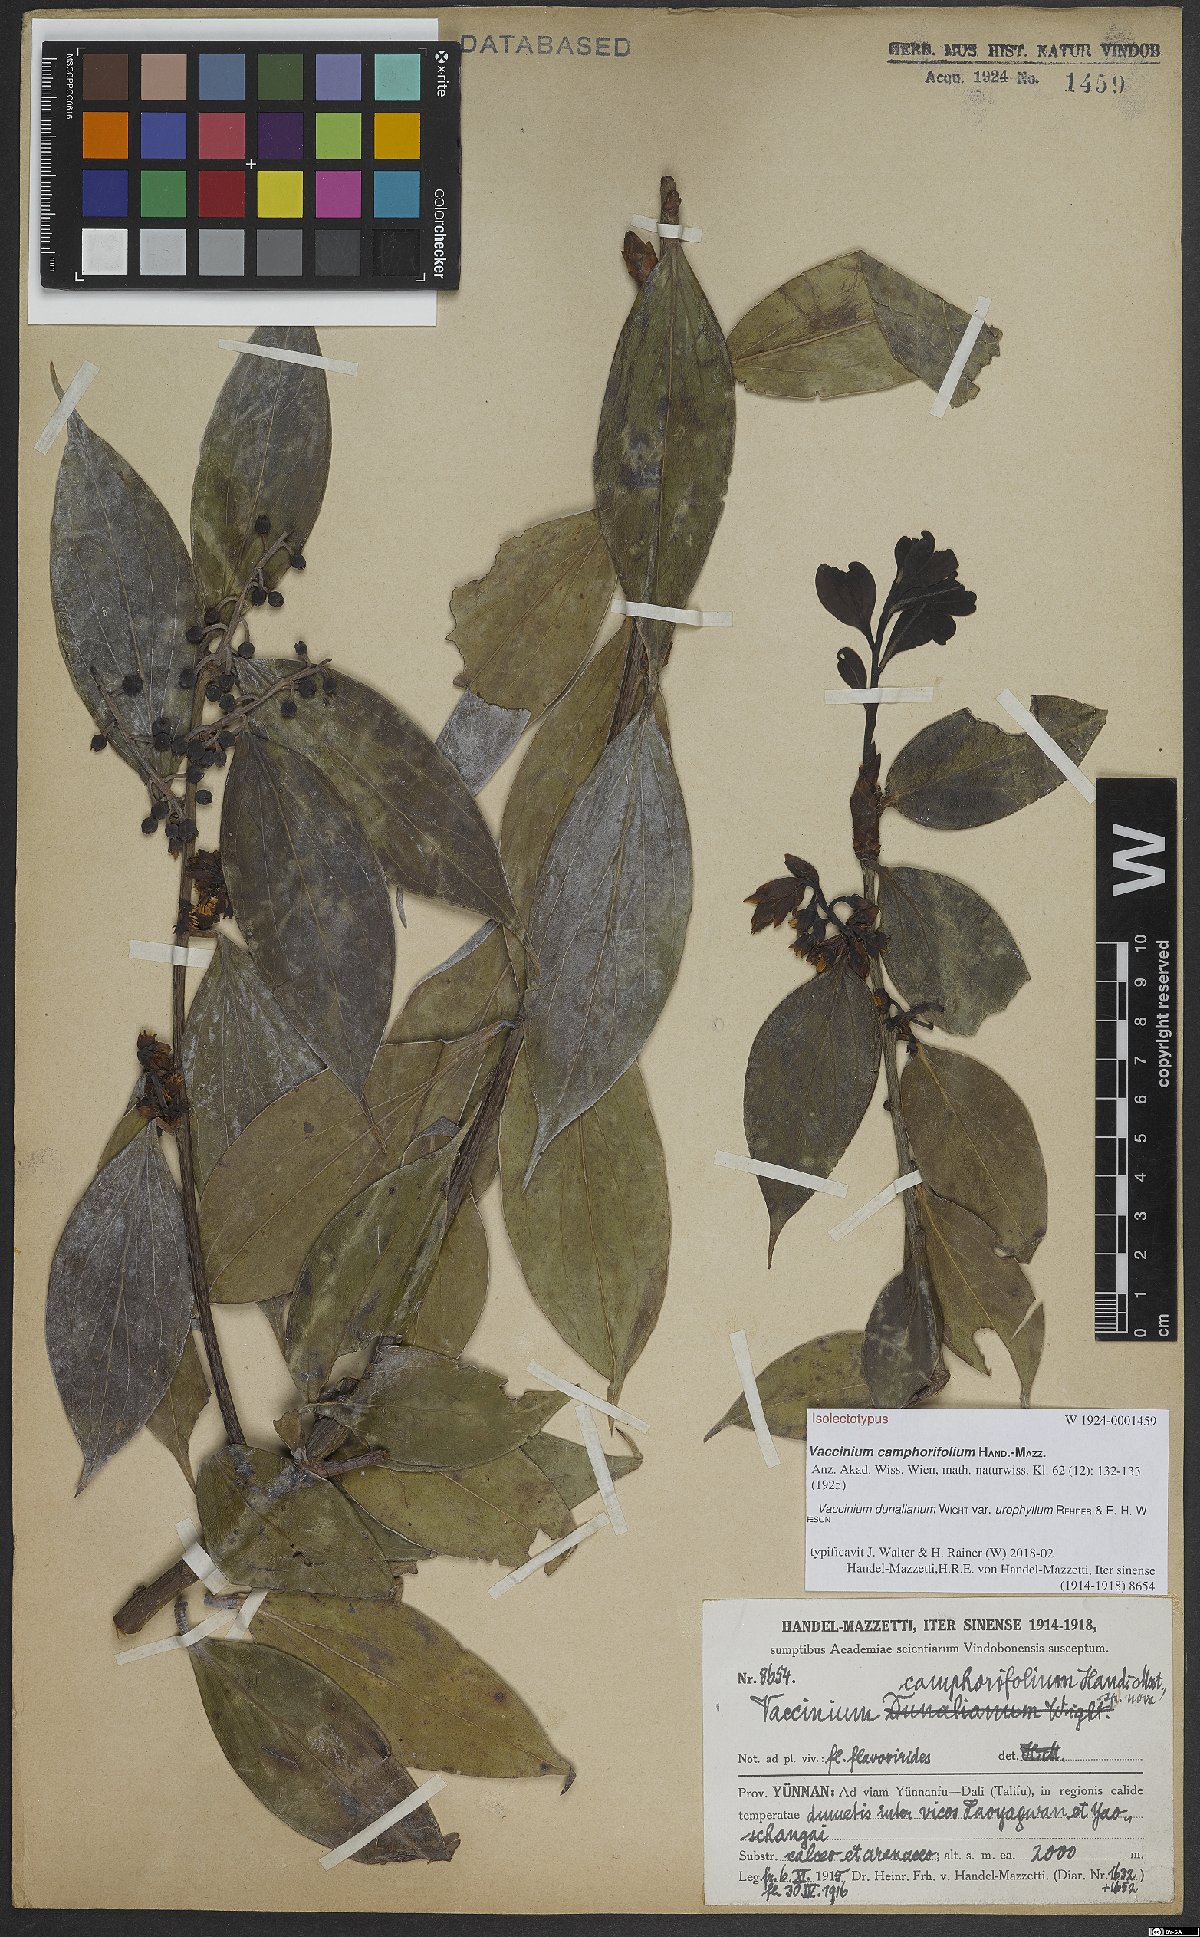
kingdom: Plantae
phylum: Tracheophyta
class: Magnoliopsida
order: Ericales
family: Ericaceae
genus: Vaccinium
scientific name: Vaccinium dunalianum
